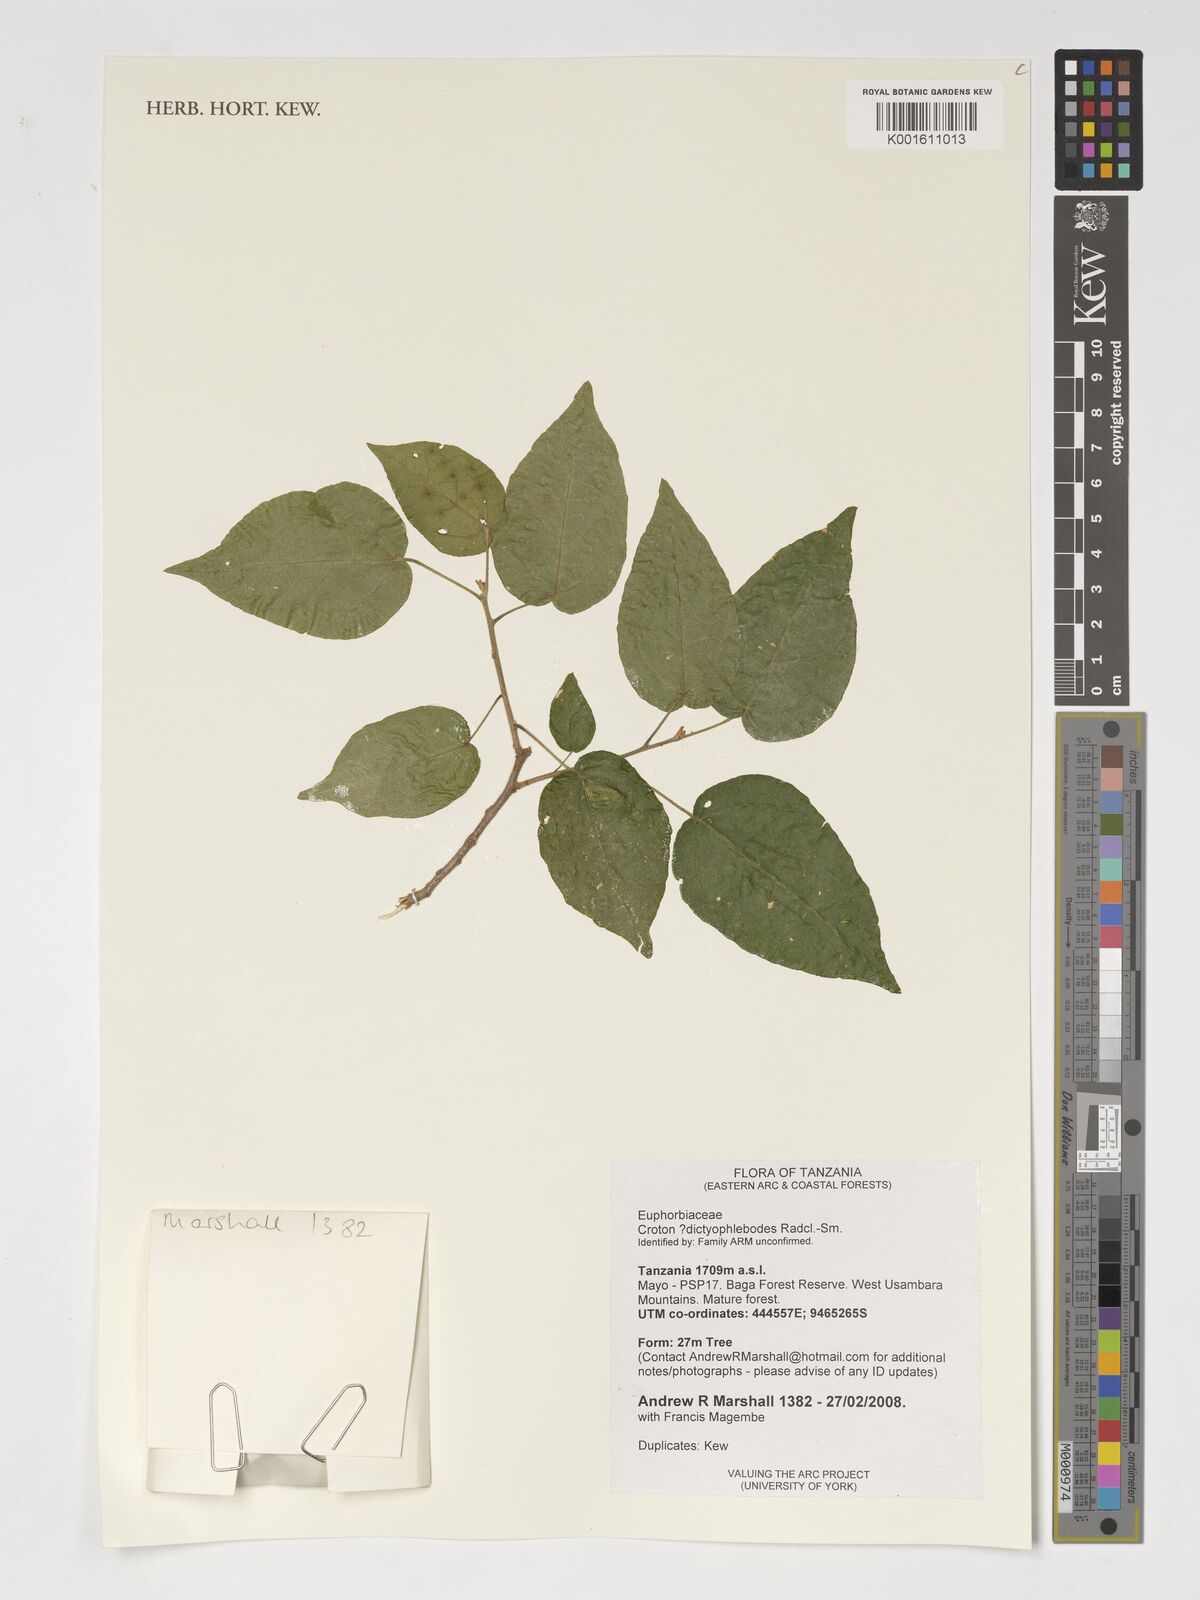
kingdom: Plantae
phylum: Tracheophyta
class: Magnoliopsida
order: Malpighiales
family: Euphorbiaceae
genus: Croton
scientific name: Croton dictyophlebodes
